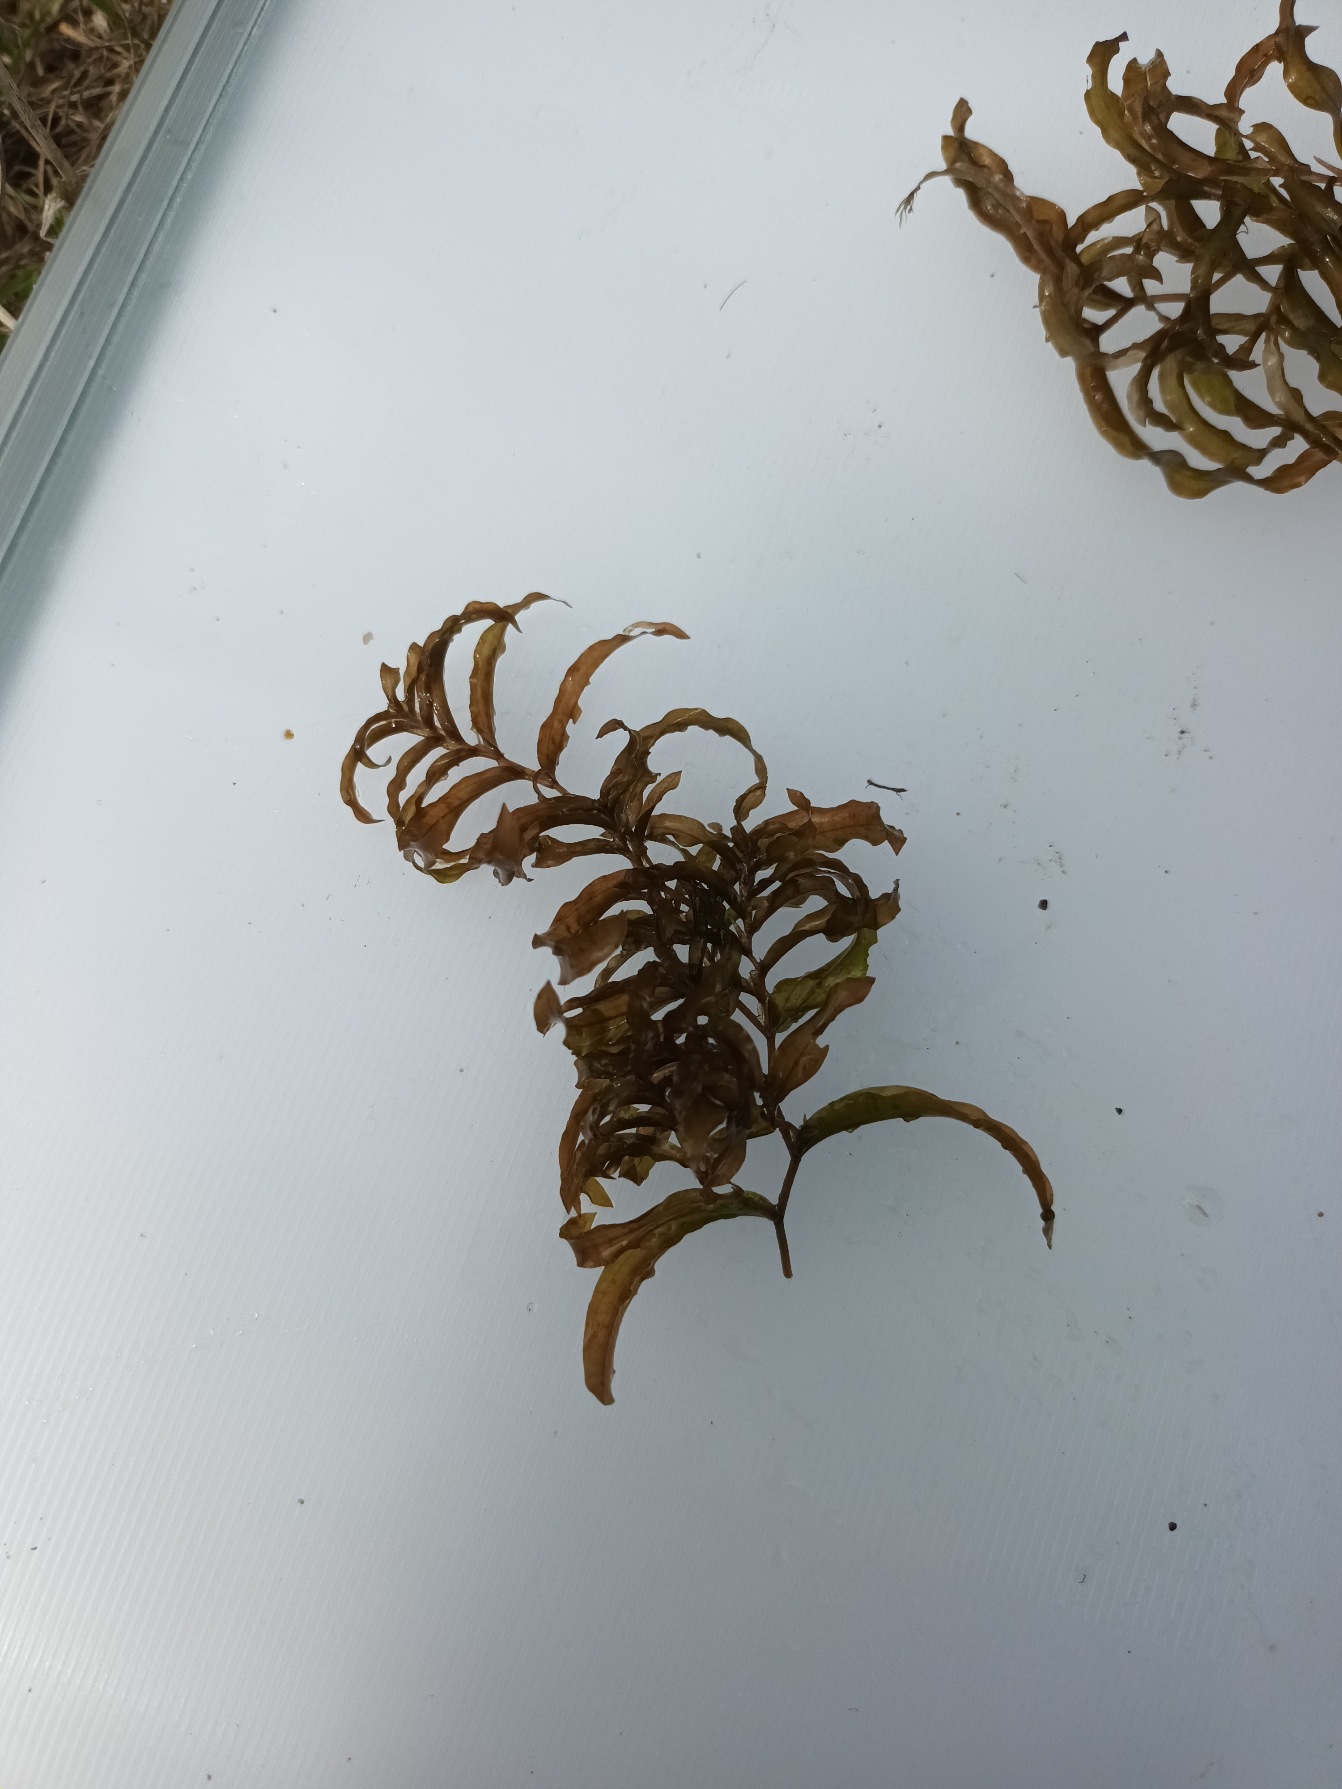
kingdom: Plantae
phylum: Tracheophyta
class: Liliopsida
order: Alismatales
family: Potamogetonaceae
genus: Potamogeton
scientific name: Potamogeton gramineus
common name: Græsbladet vandaks
